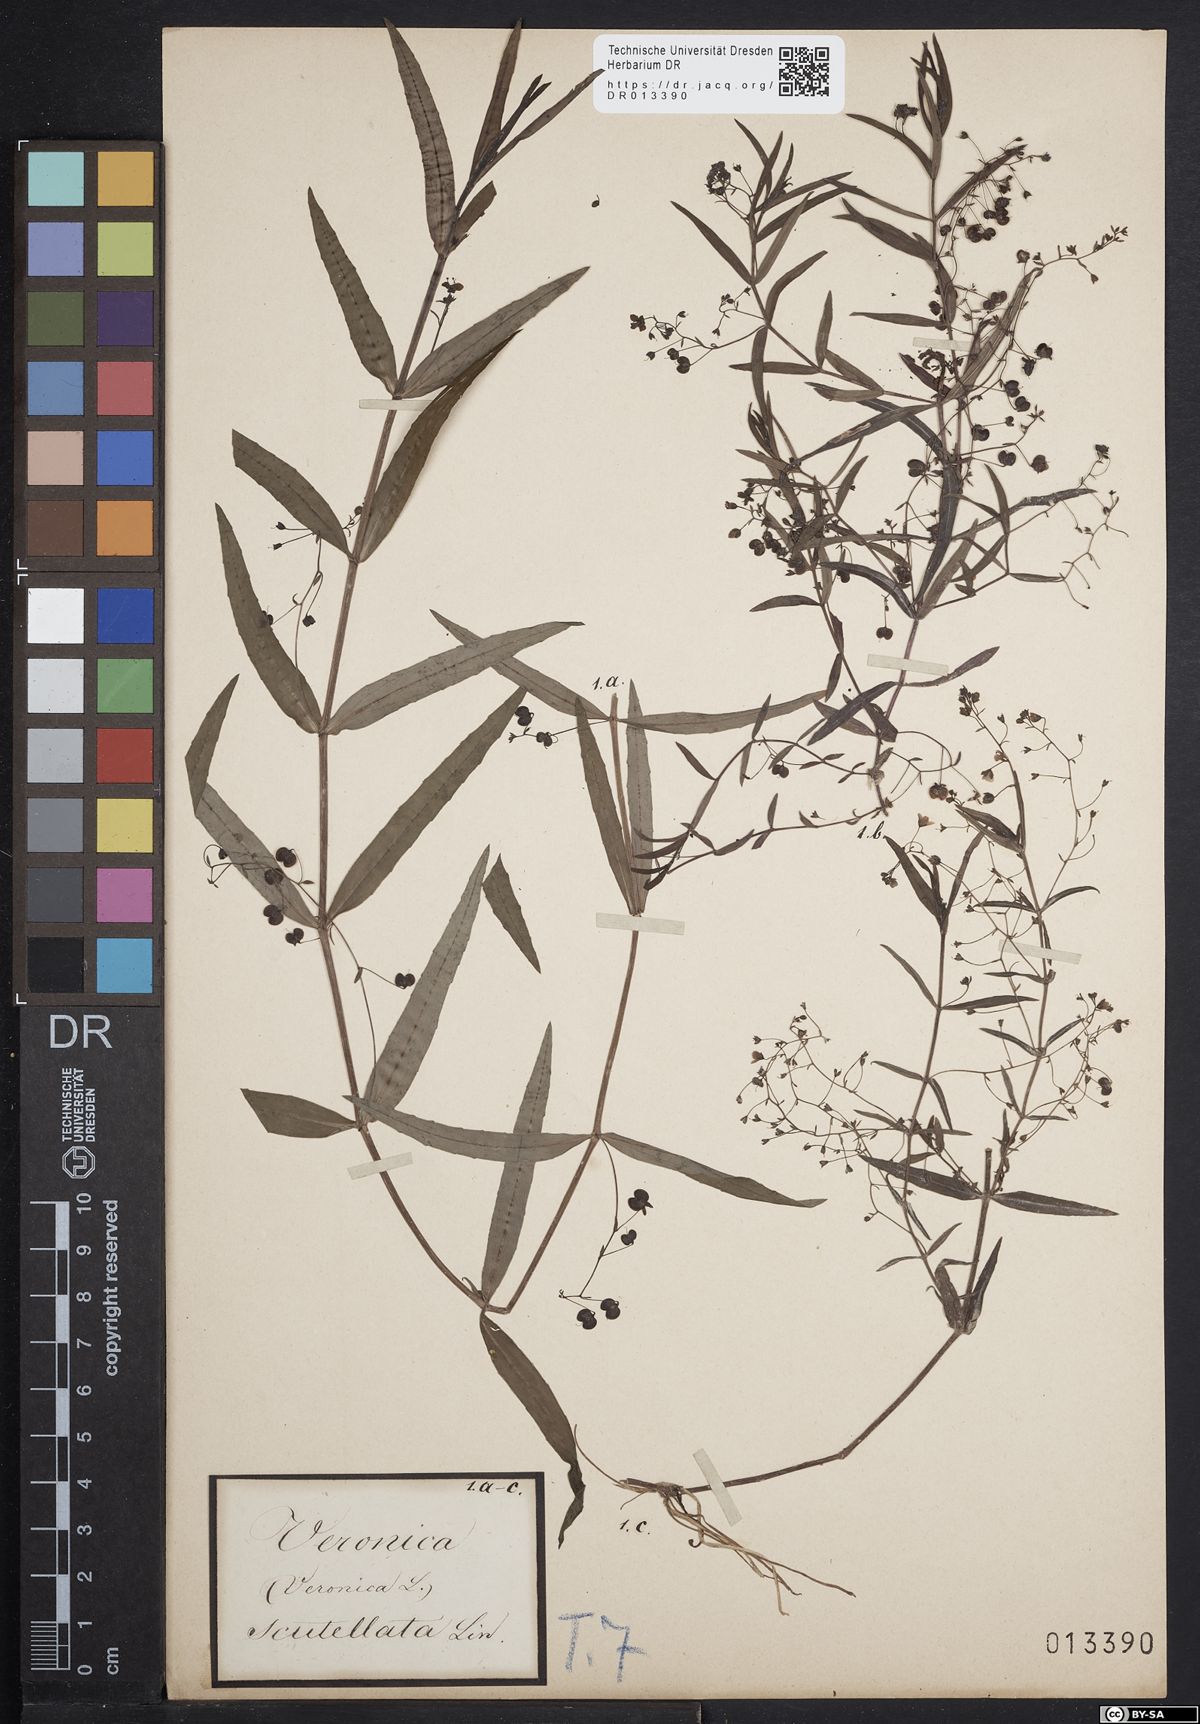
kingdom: Plantae
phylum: Tracheophyta
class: Magnoliopsida
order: Lamiales
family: Plantaginaceae
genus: Veronica
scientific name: Veronica scutellata
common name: Marsh speedwell
